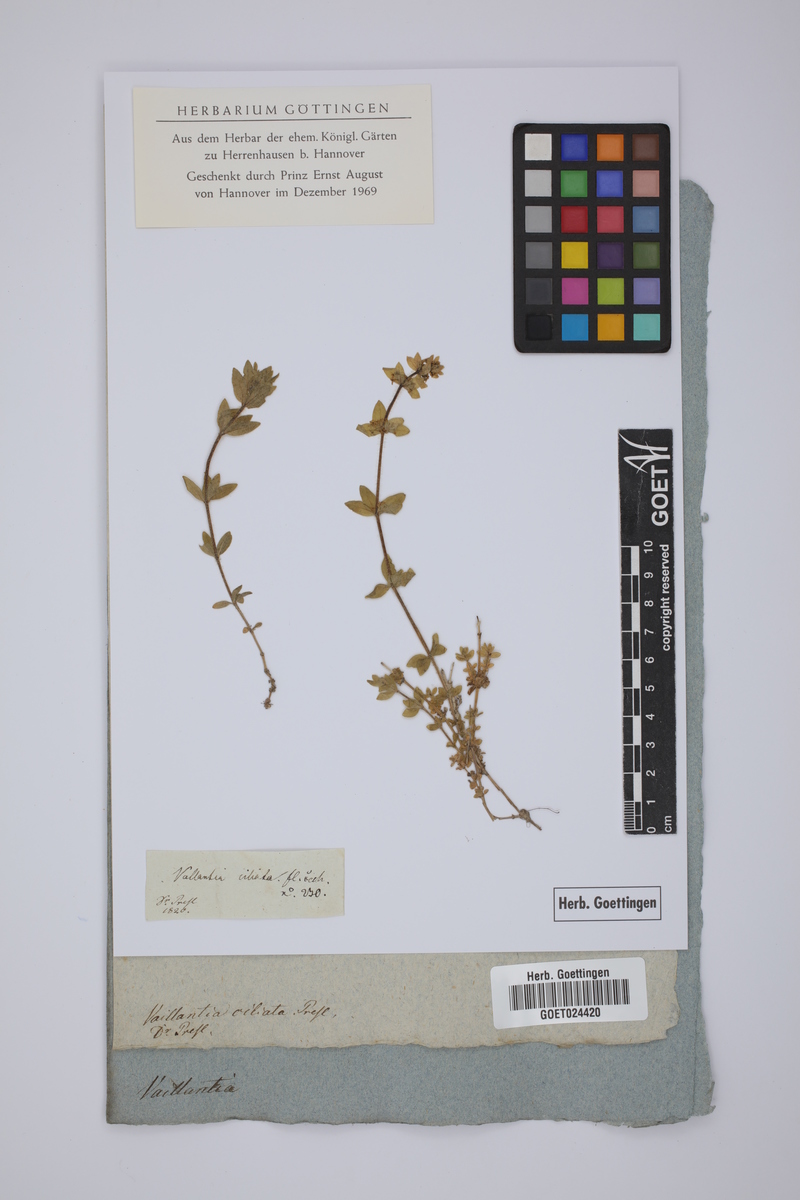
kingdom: Plantae
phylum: Tracheophyta
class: Magnoliopsida
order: Gentianales
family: Rubiaceae
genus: Cruciata
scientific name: Cruciata laevipes
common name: Crosswort
